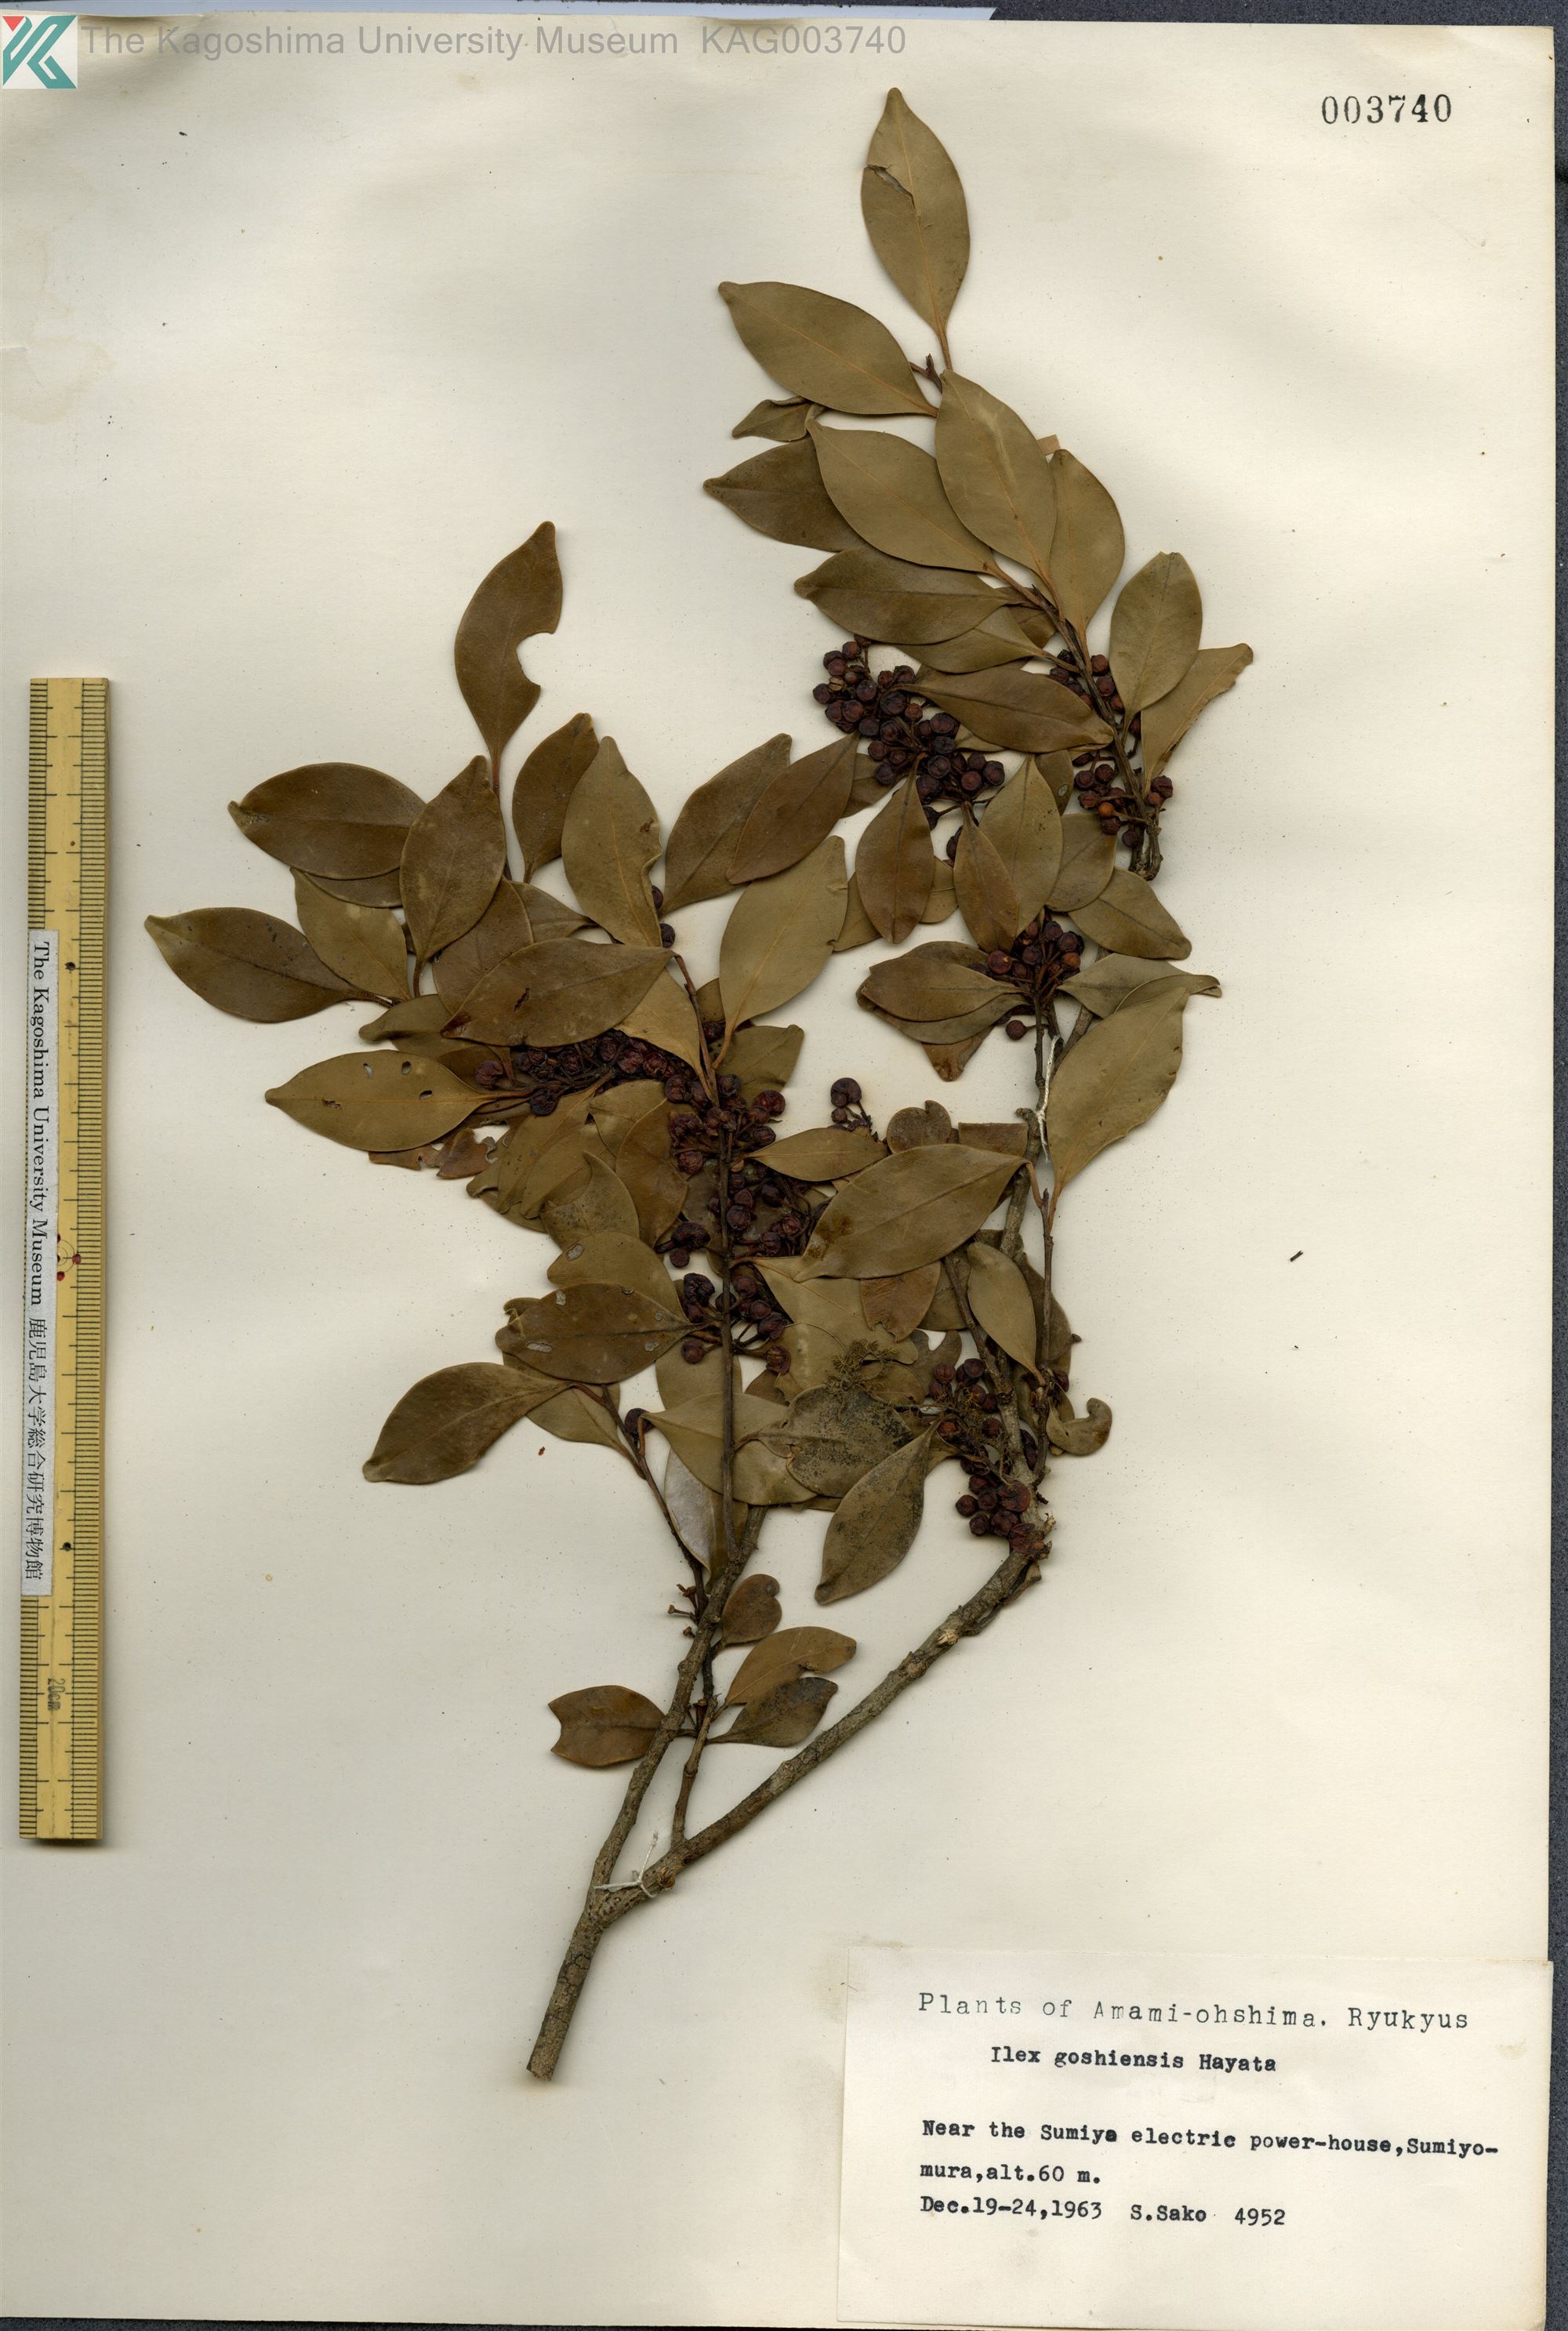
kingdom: Plantae
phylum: Tracheophyta
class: Magnoliopsida
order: Aquifoliales
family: Aquifoliaceae
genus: Ilex
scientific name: Ilex goshiensis
